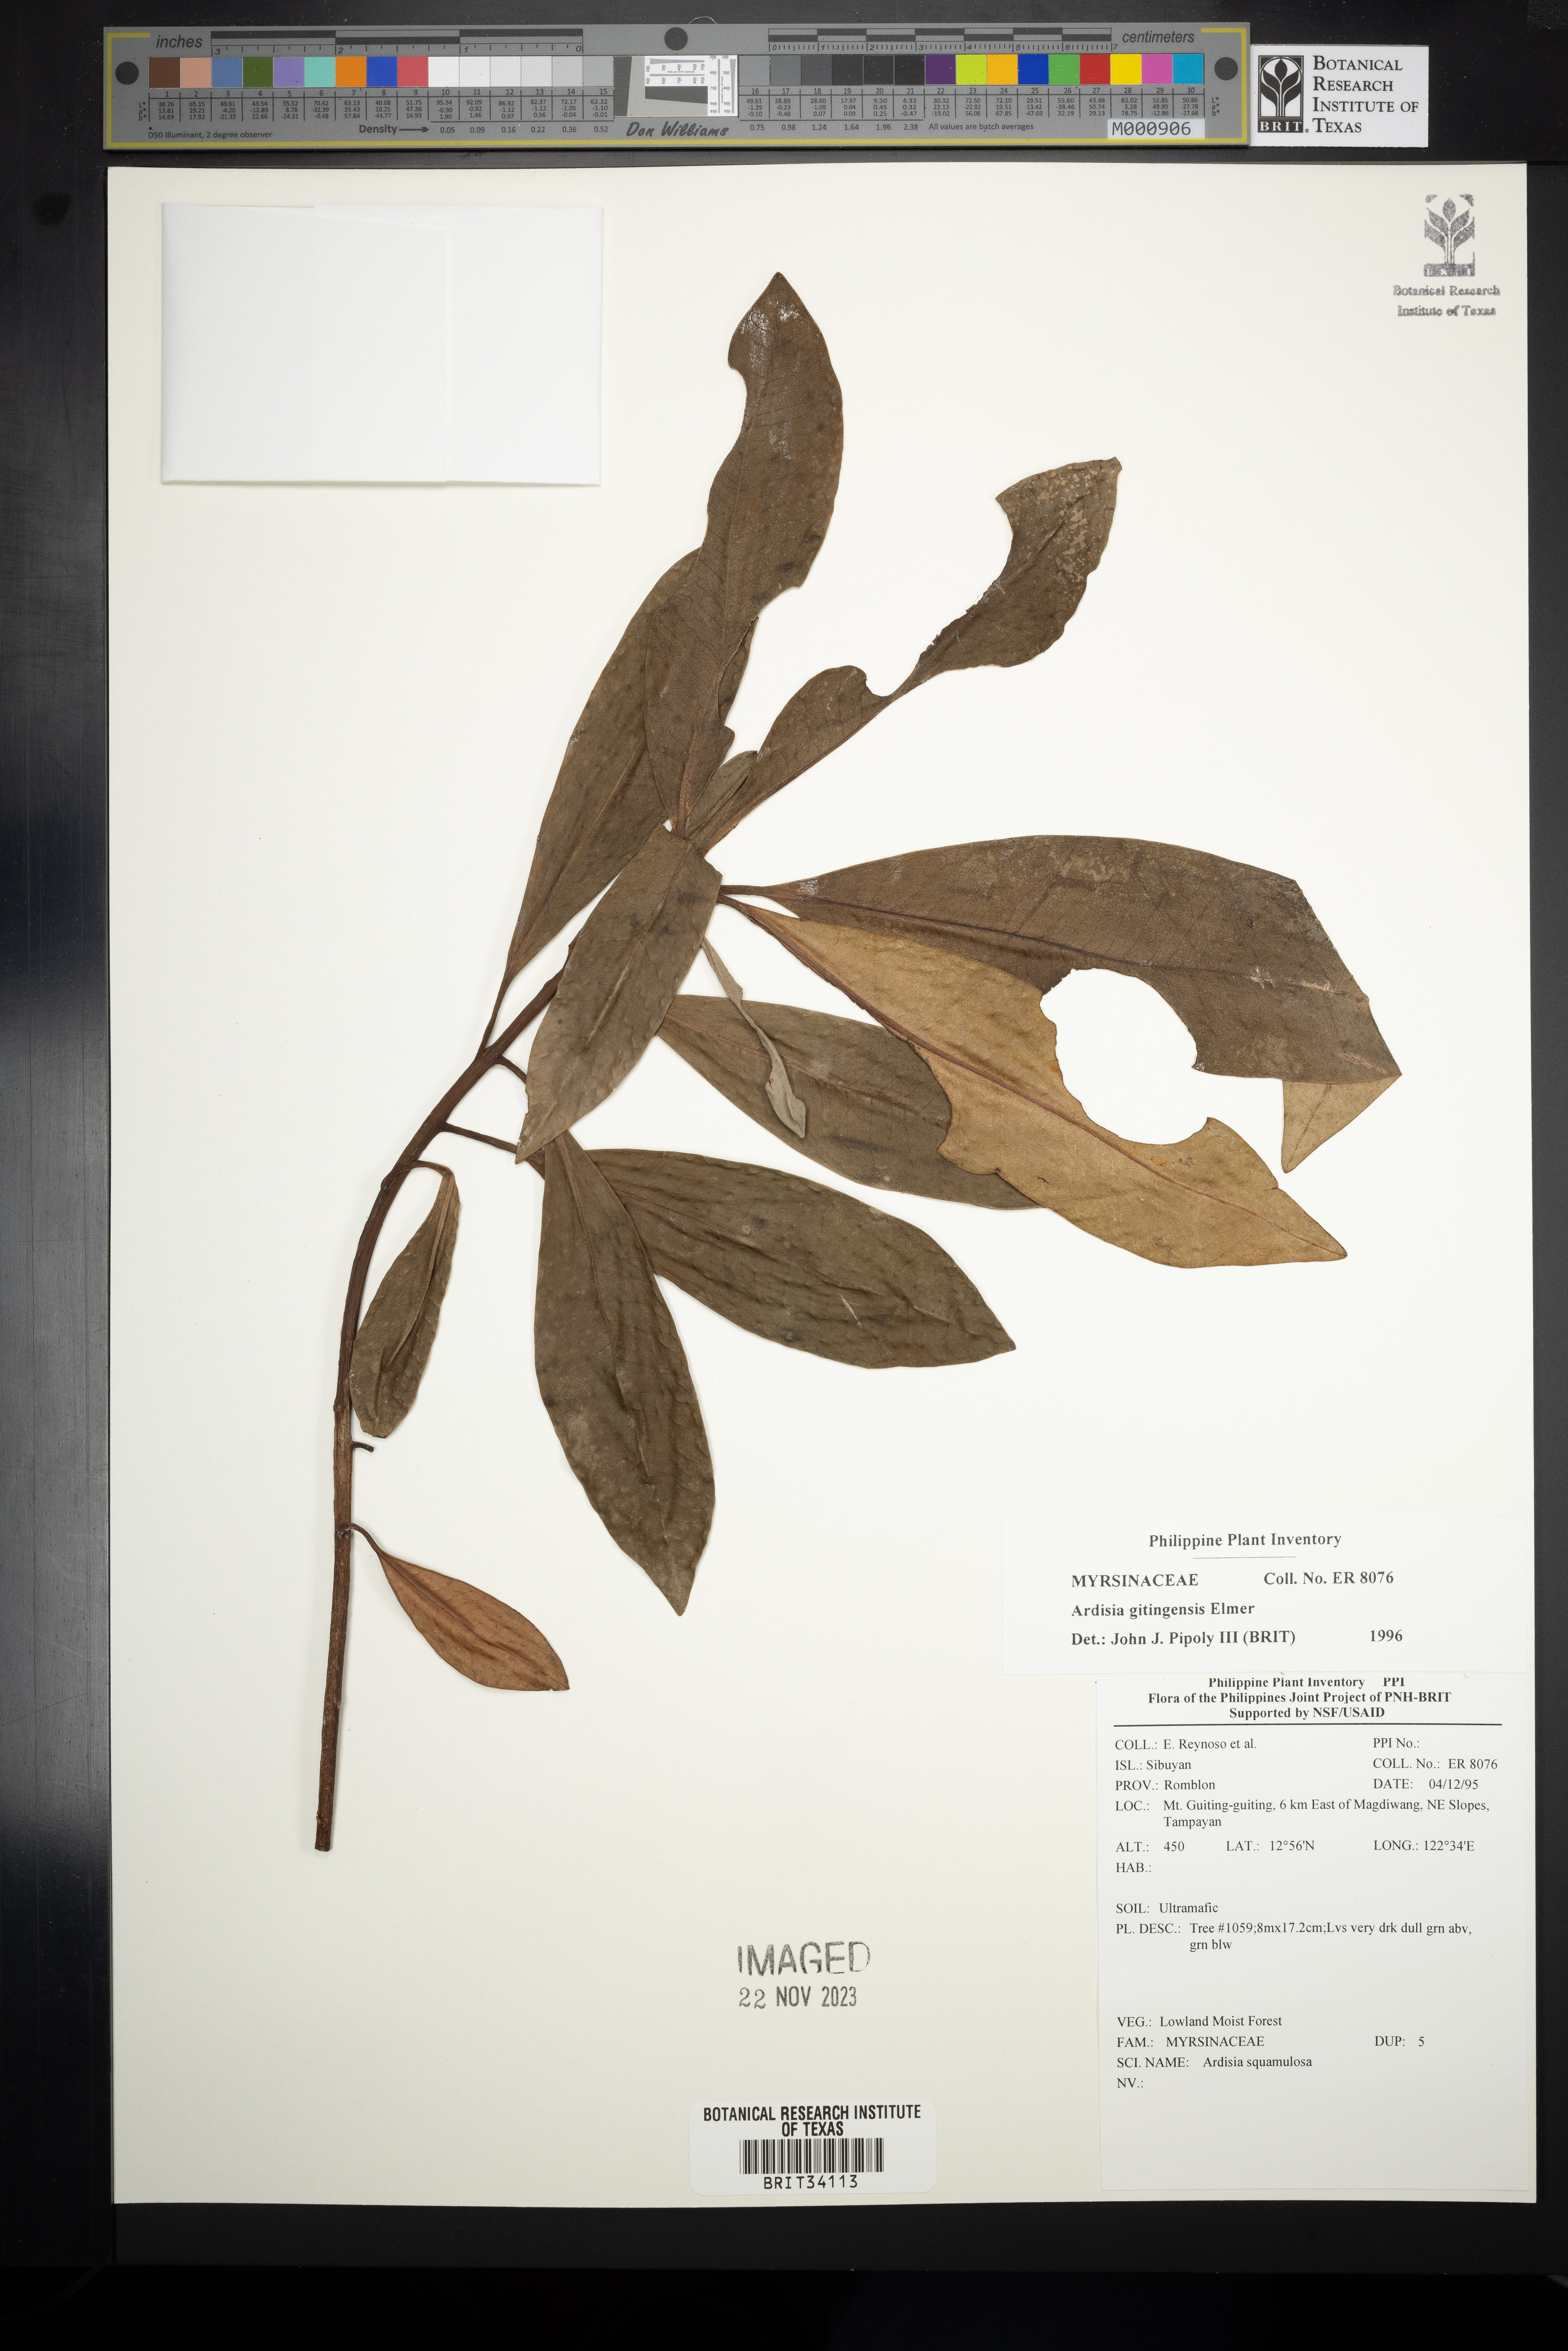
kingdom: Plantae
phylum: Tracheophyta
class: Magnoliopsida
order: Ericales
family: Primulaceae
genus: Ardisia
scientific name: Ardisia darlingii
